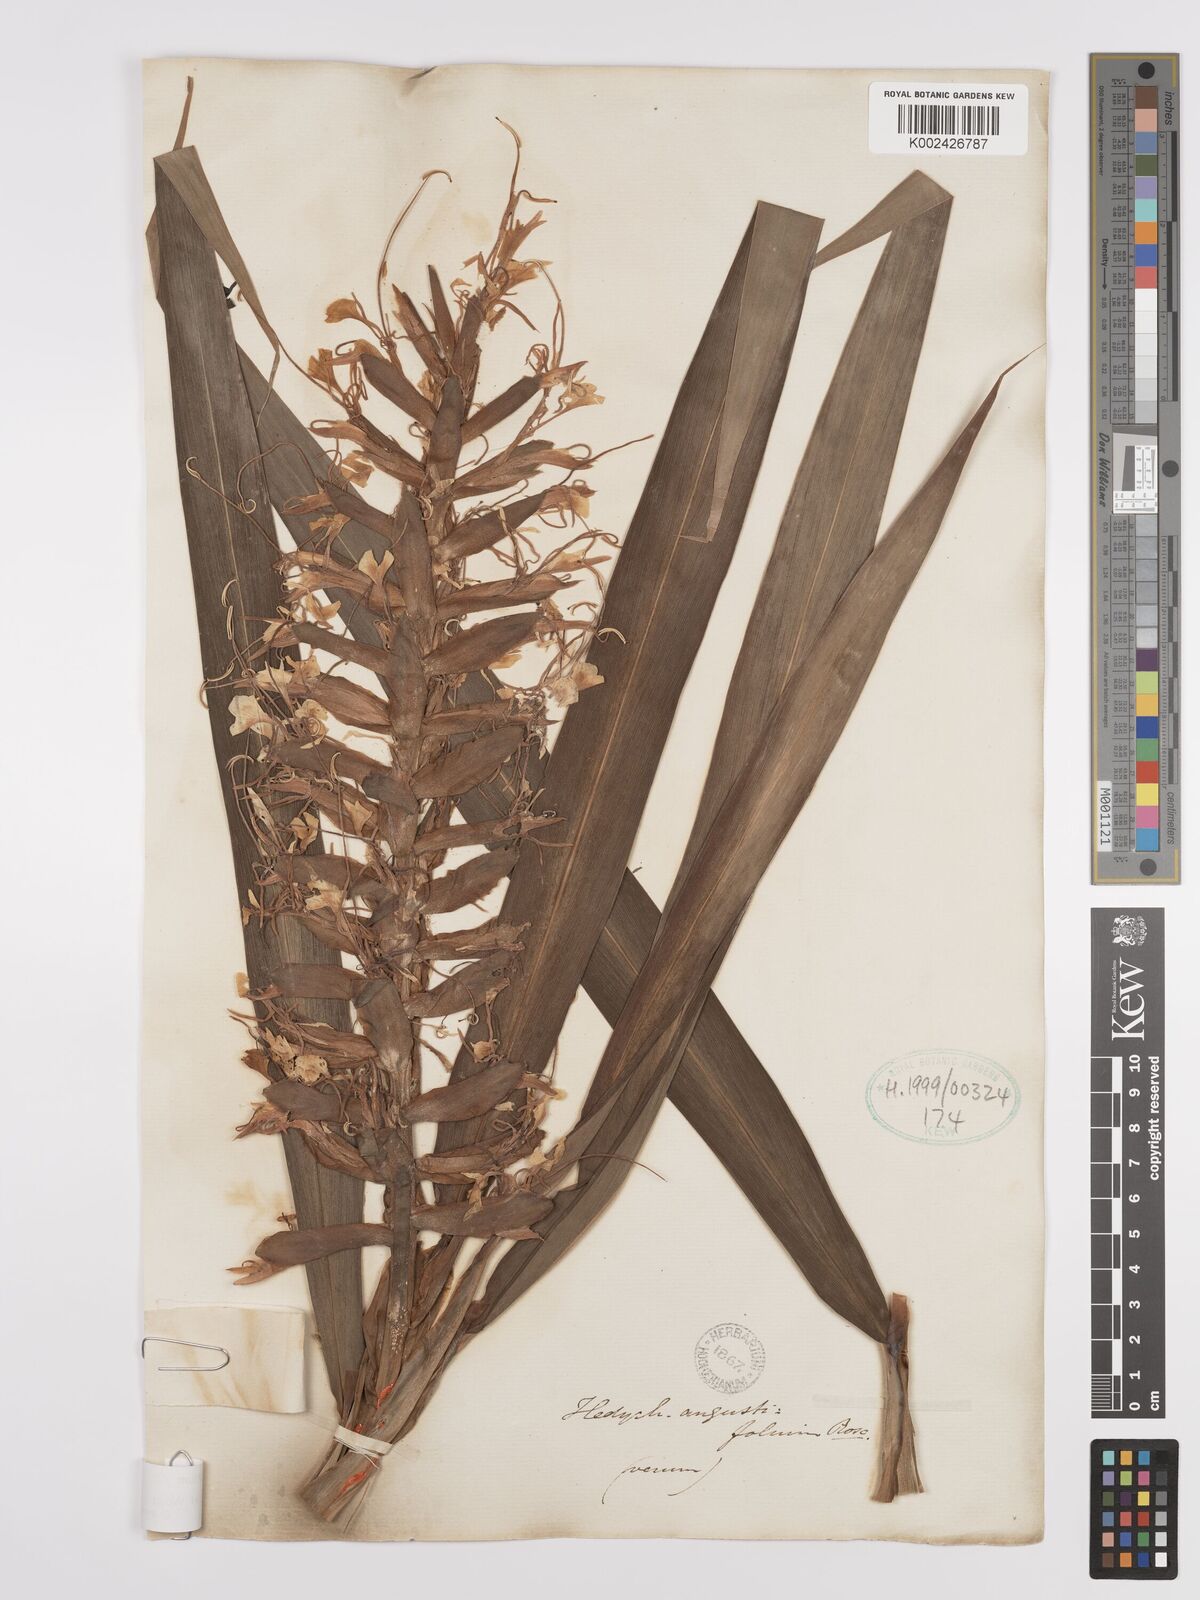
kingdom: Plantae
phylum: Tracheophyta
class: Liliopsida
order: Zingiberales
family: Zingiberaceae
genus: Hedychium
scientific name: Hedychium coccineum
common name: Red ginger-lily
